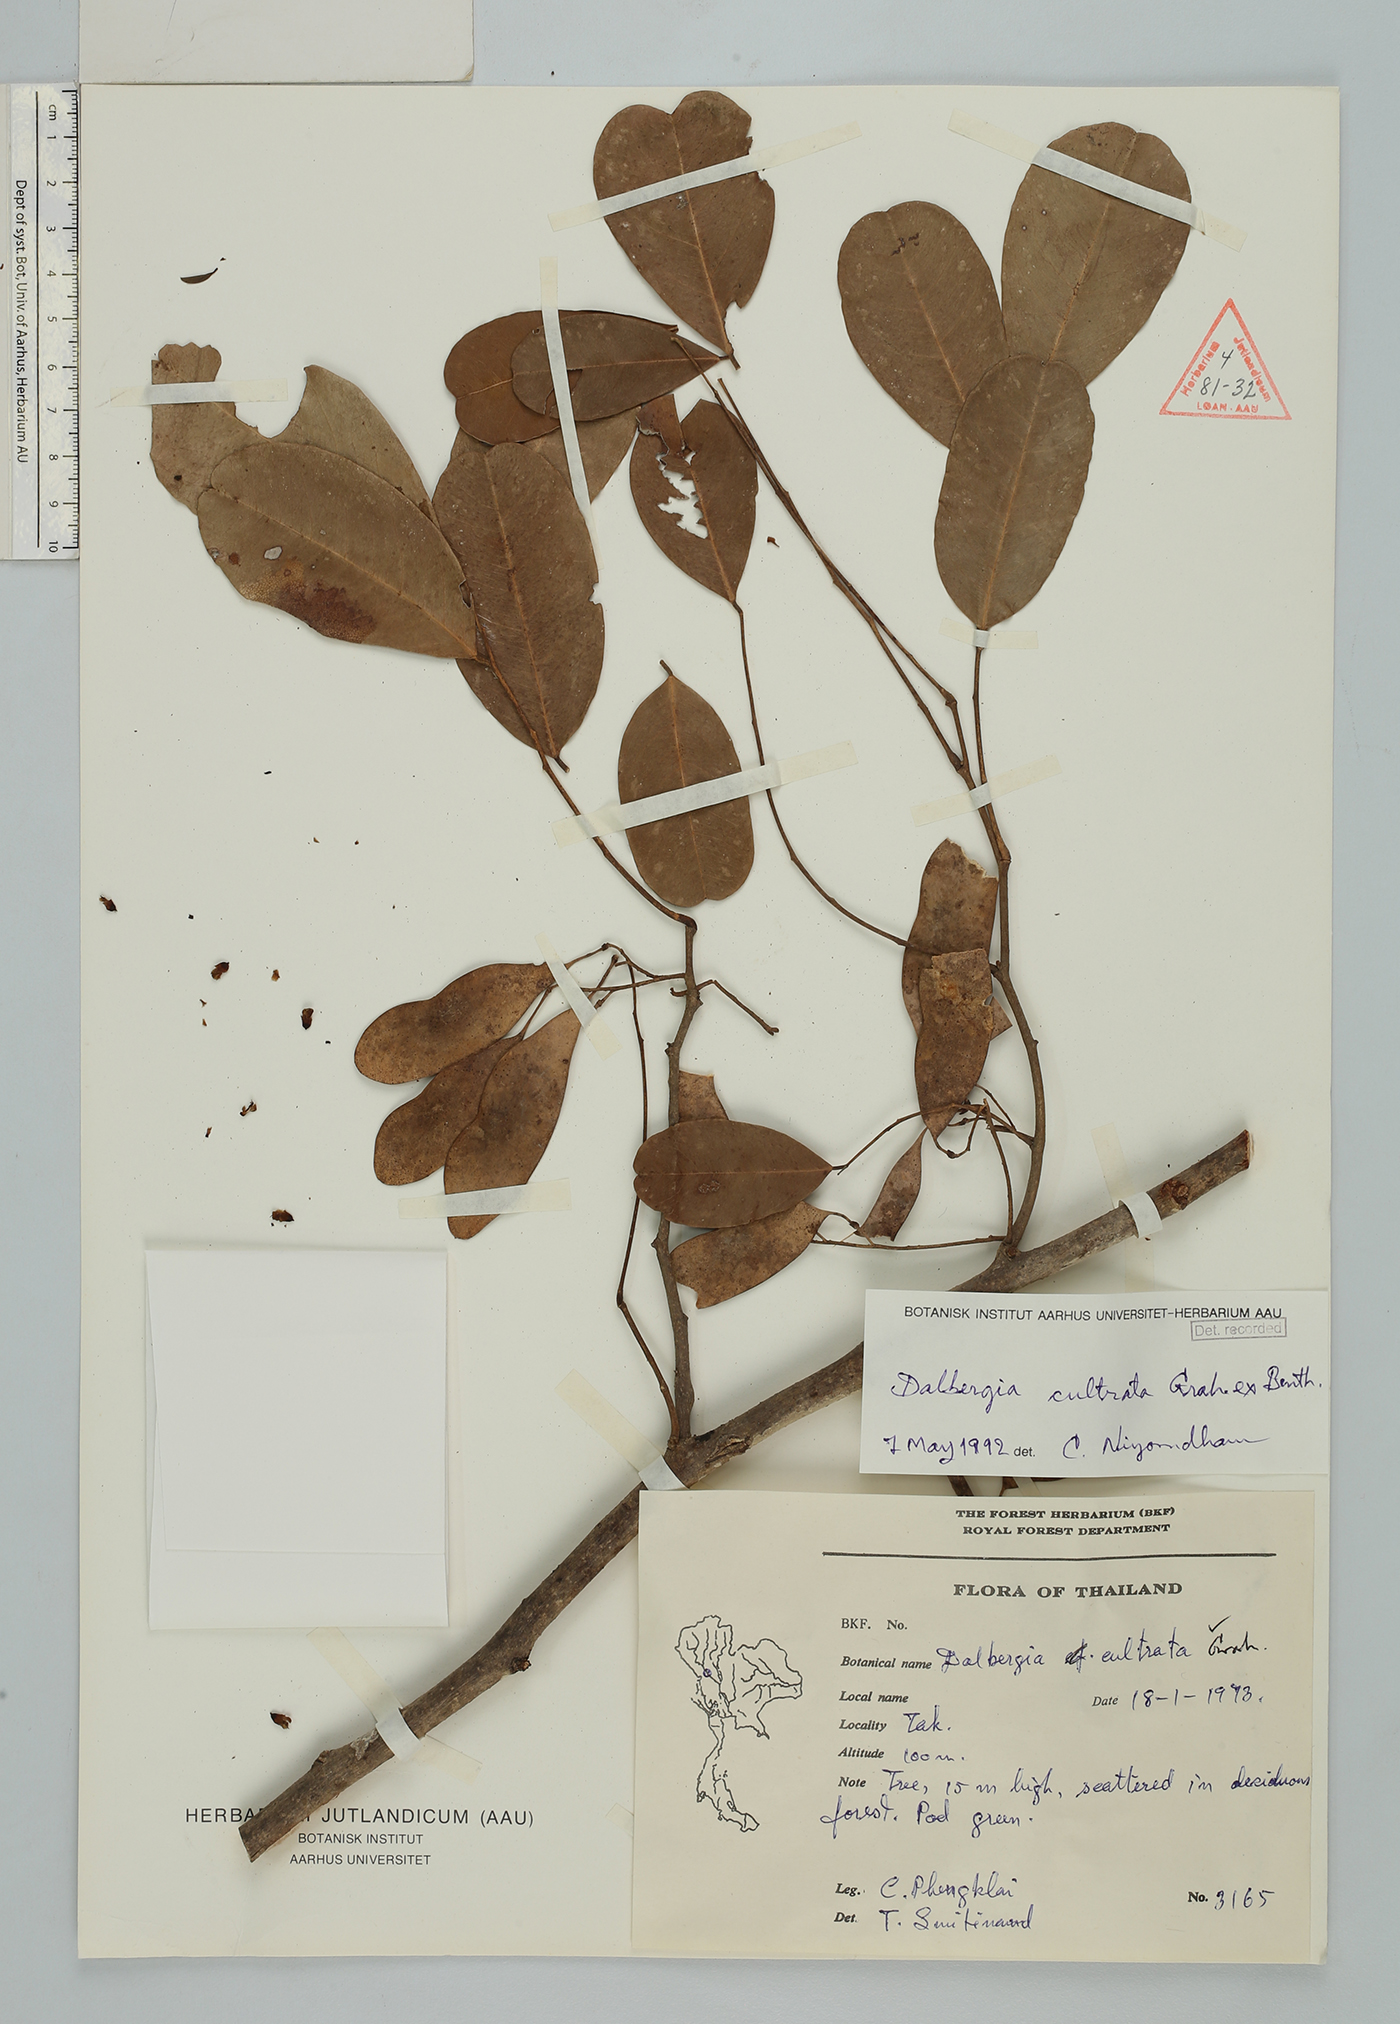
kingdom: Plantae
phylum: Tracheophyta
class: Magnoliopsida
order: Fabales
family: Fabaceae
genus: Dalbergia
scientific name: Dalbergia cultrata
